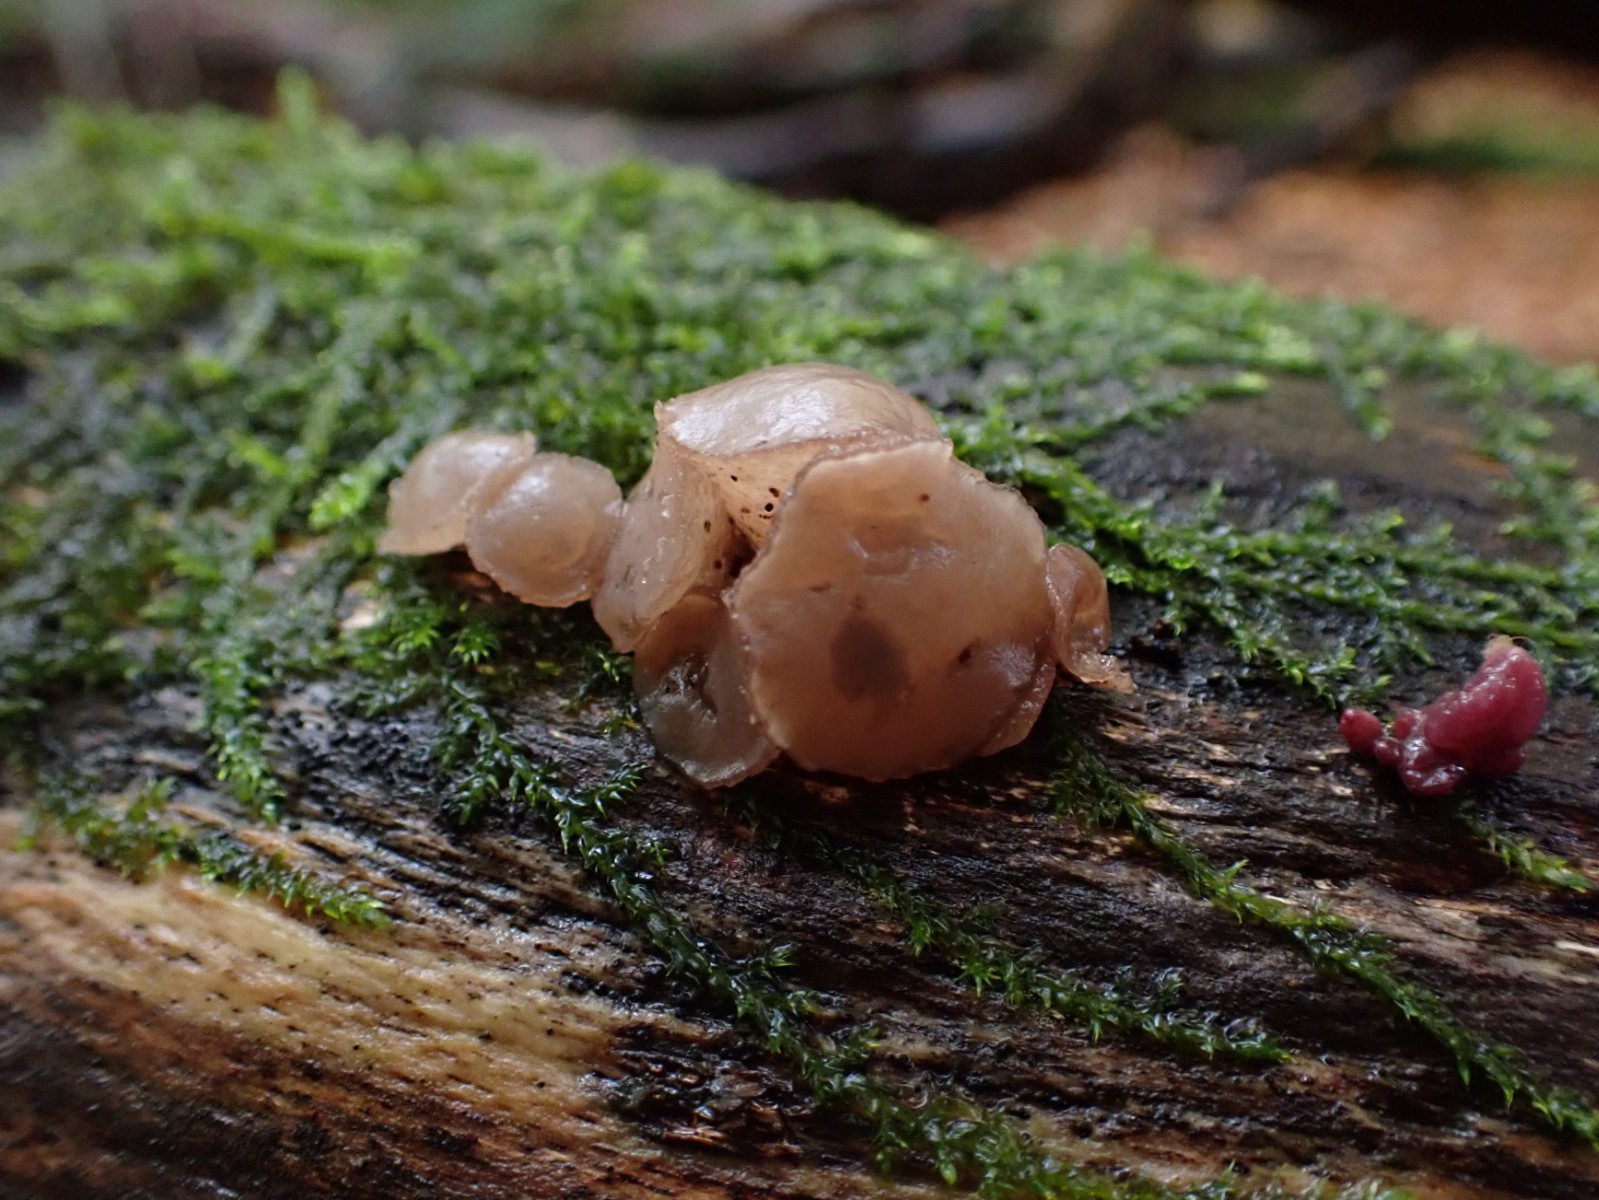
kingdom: Fungi
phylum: Ascomycota
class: Leotiomycetes
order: Helotiales
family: Gelatinodiscaceae
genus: Neobulgaria
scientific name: Neobulgaria pura
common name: bleg bævreskive
